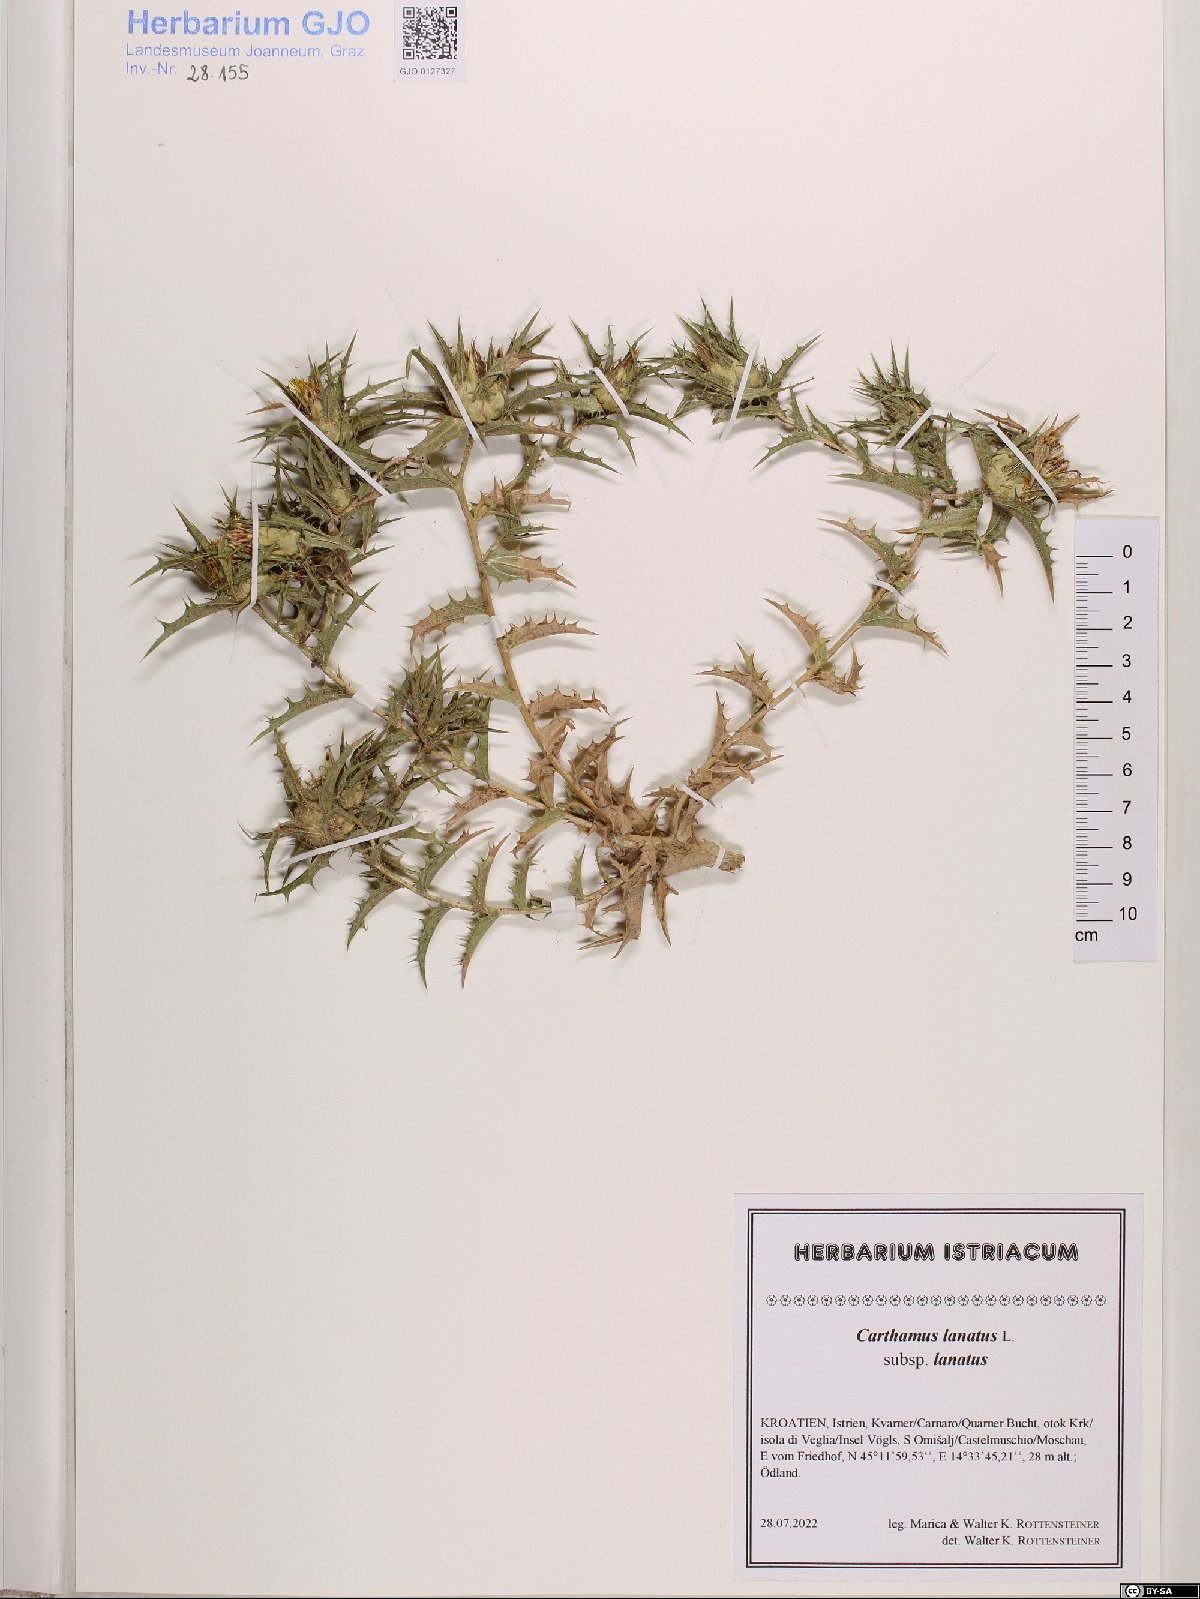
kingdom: Plantae
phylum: Tracheophyta
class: Magnoliopsida
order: Asterales
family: Asteraceae
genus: Carthamus
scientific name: Carthamus lanatus
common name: Downy safflower
